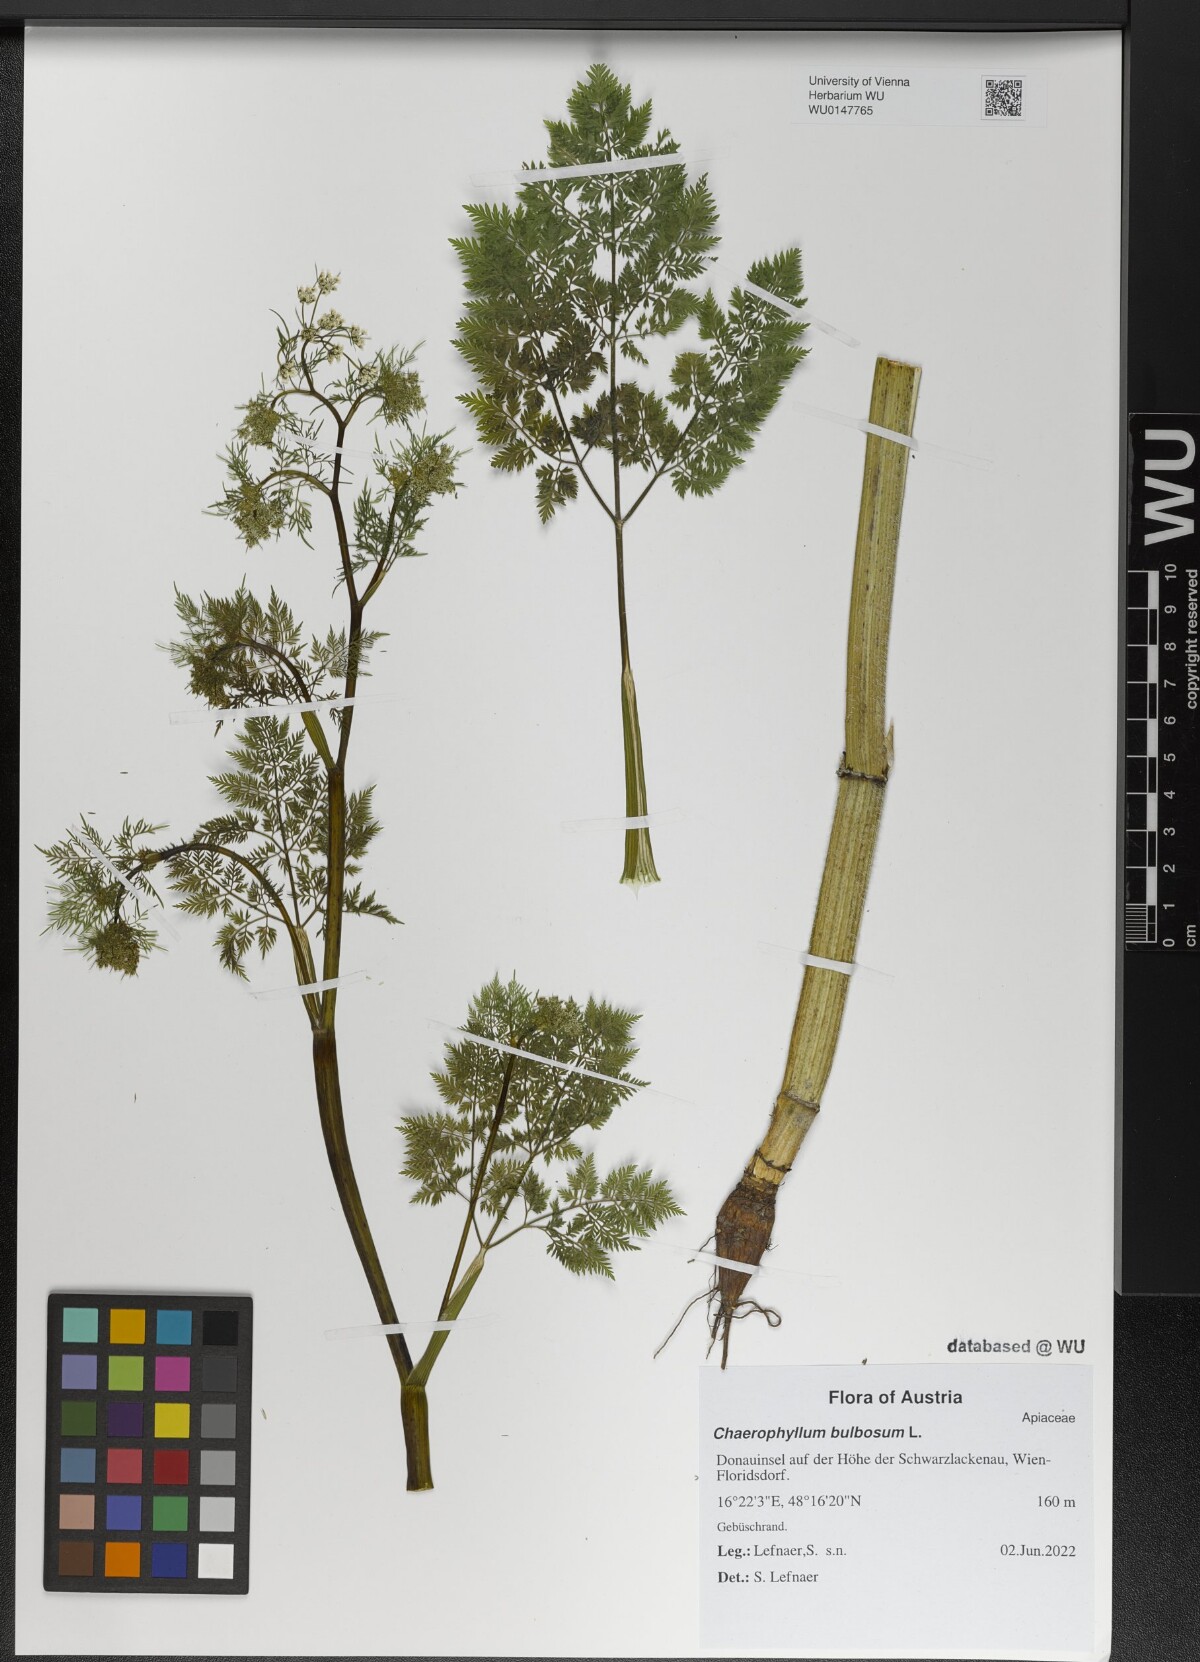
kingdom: Plantae
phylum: Tracheophyta
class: Magnoliopsida
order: Apiales
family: Apiaceae
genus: Chaerophyllum
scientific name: Chaerophyllum bulbosum
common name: Bulbous chervil
